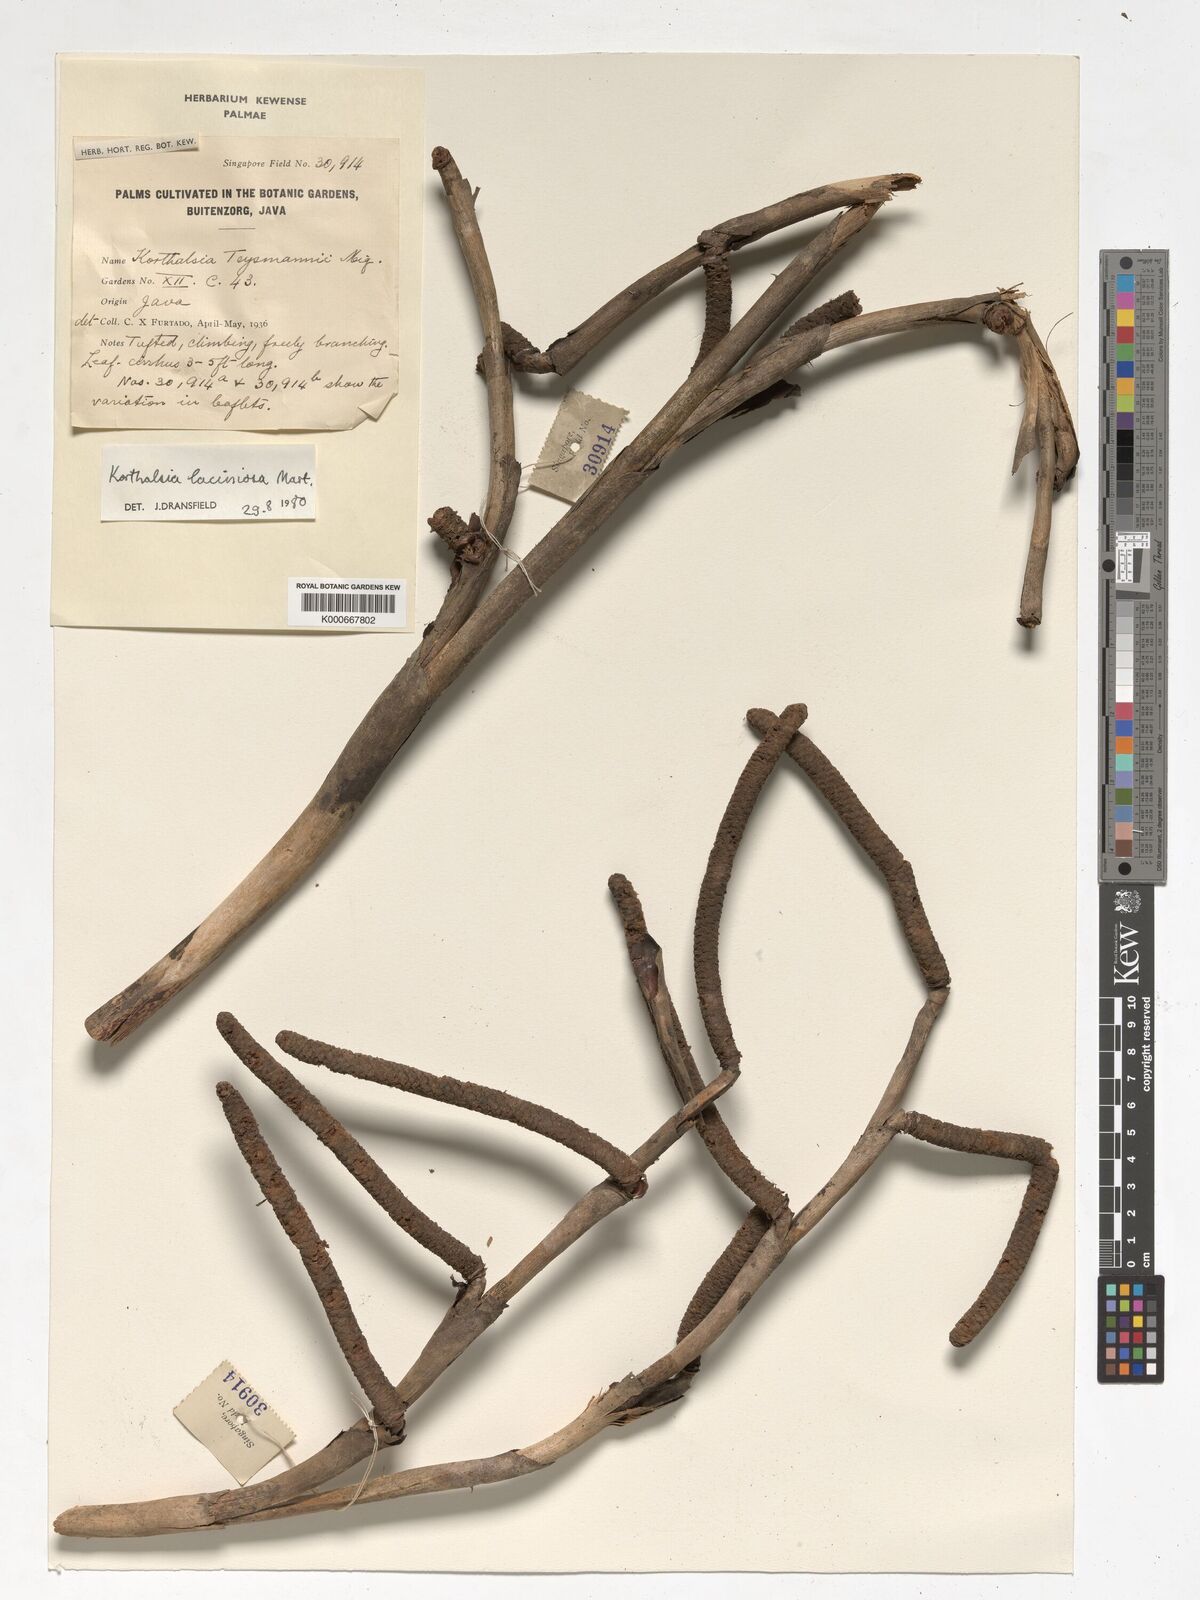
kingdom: Plantae
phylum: Tracheophyta
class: Liliopsida
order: Arecales
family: Arecaceae
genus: Korthalsia
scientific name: Korthalsia laciniosa
